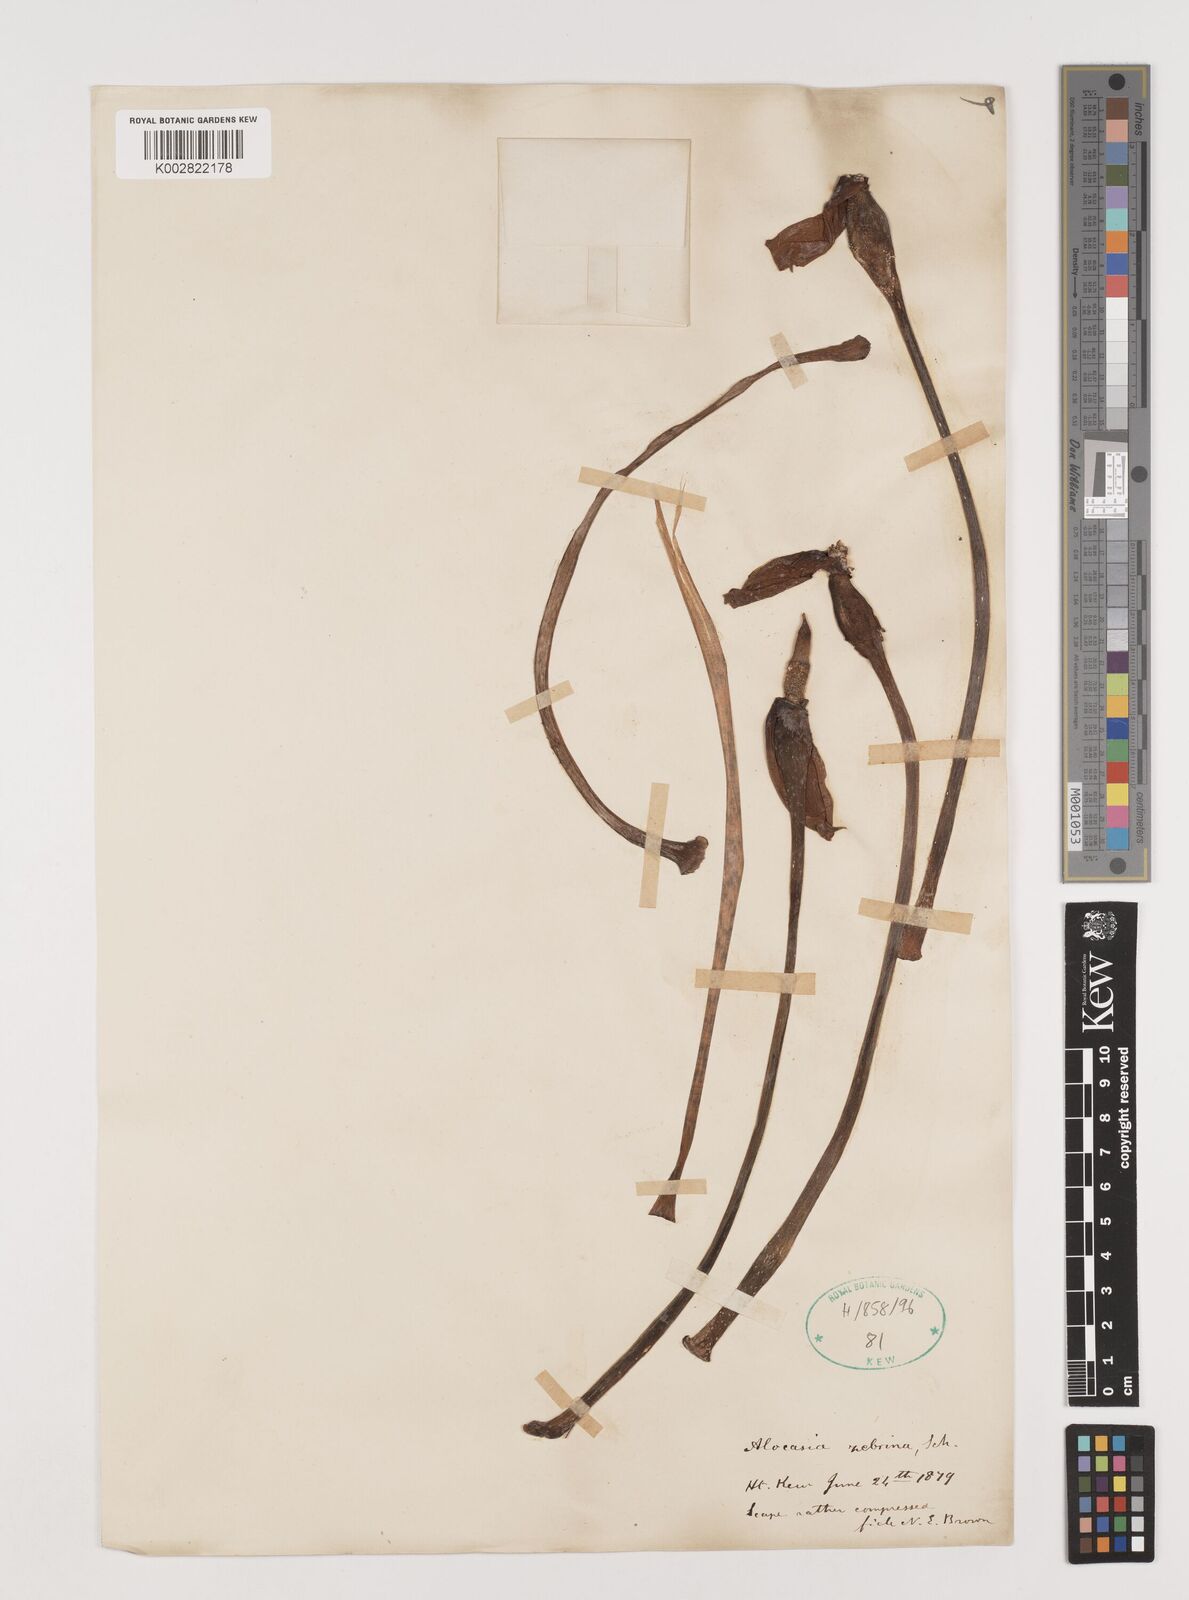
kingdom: Plantae
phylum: Tracheophyta
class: Liliopsida
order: Alismatales
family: Araceae
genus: Alocasia
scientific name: Alocasia zebrina
